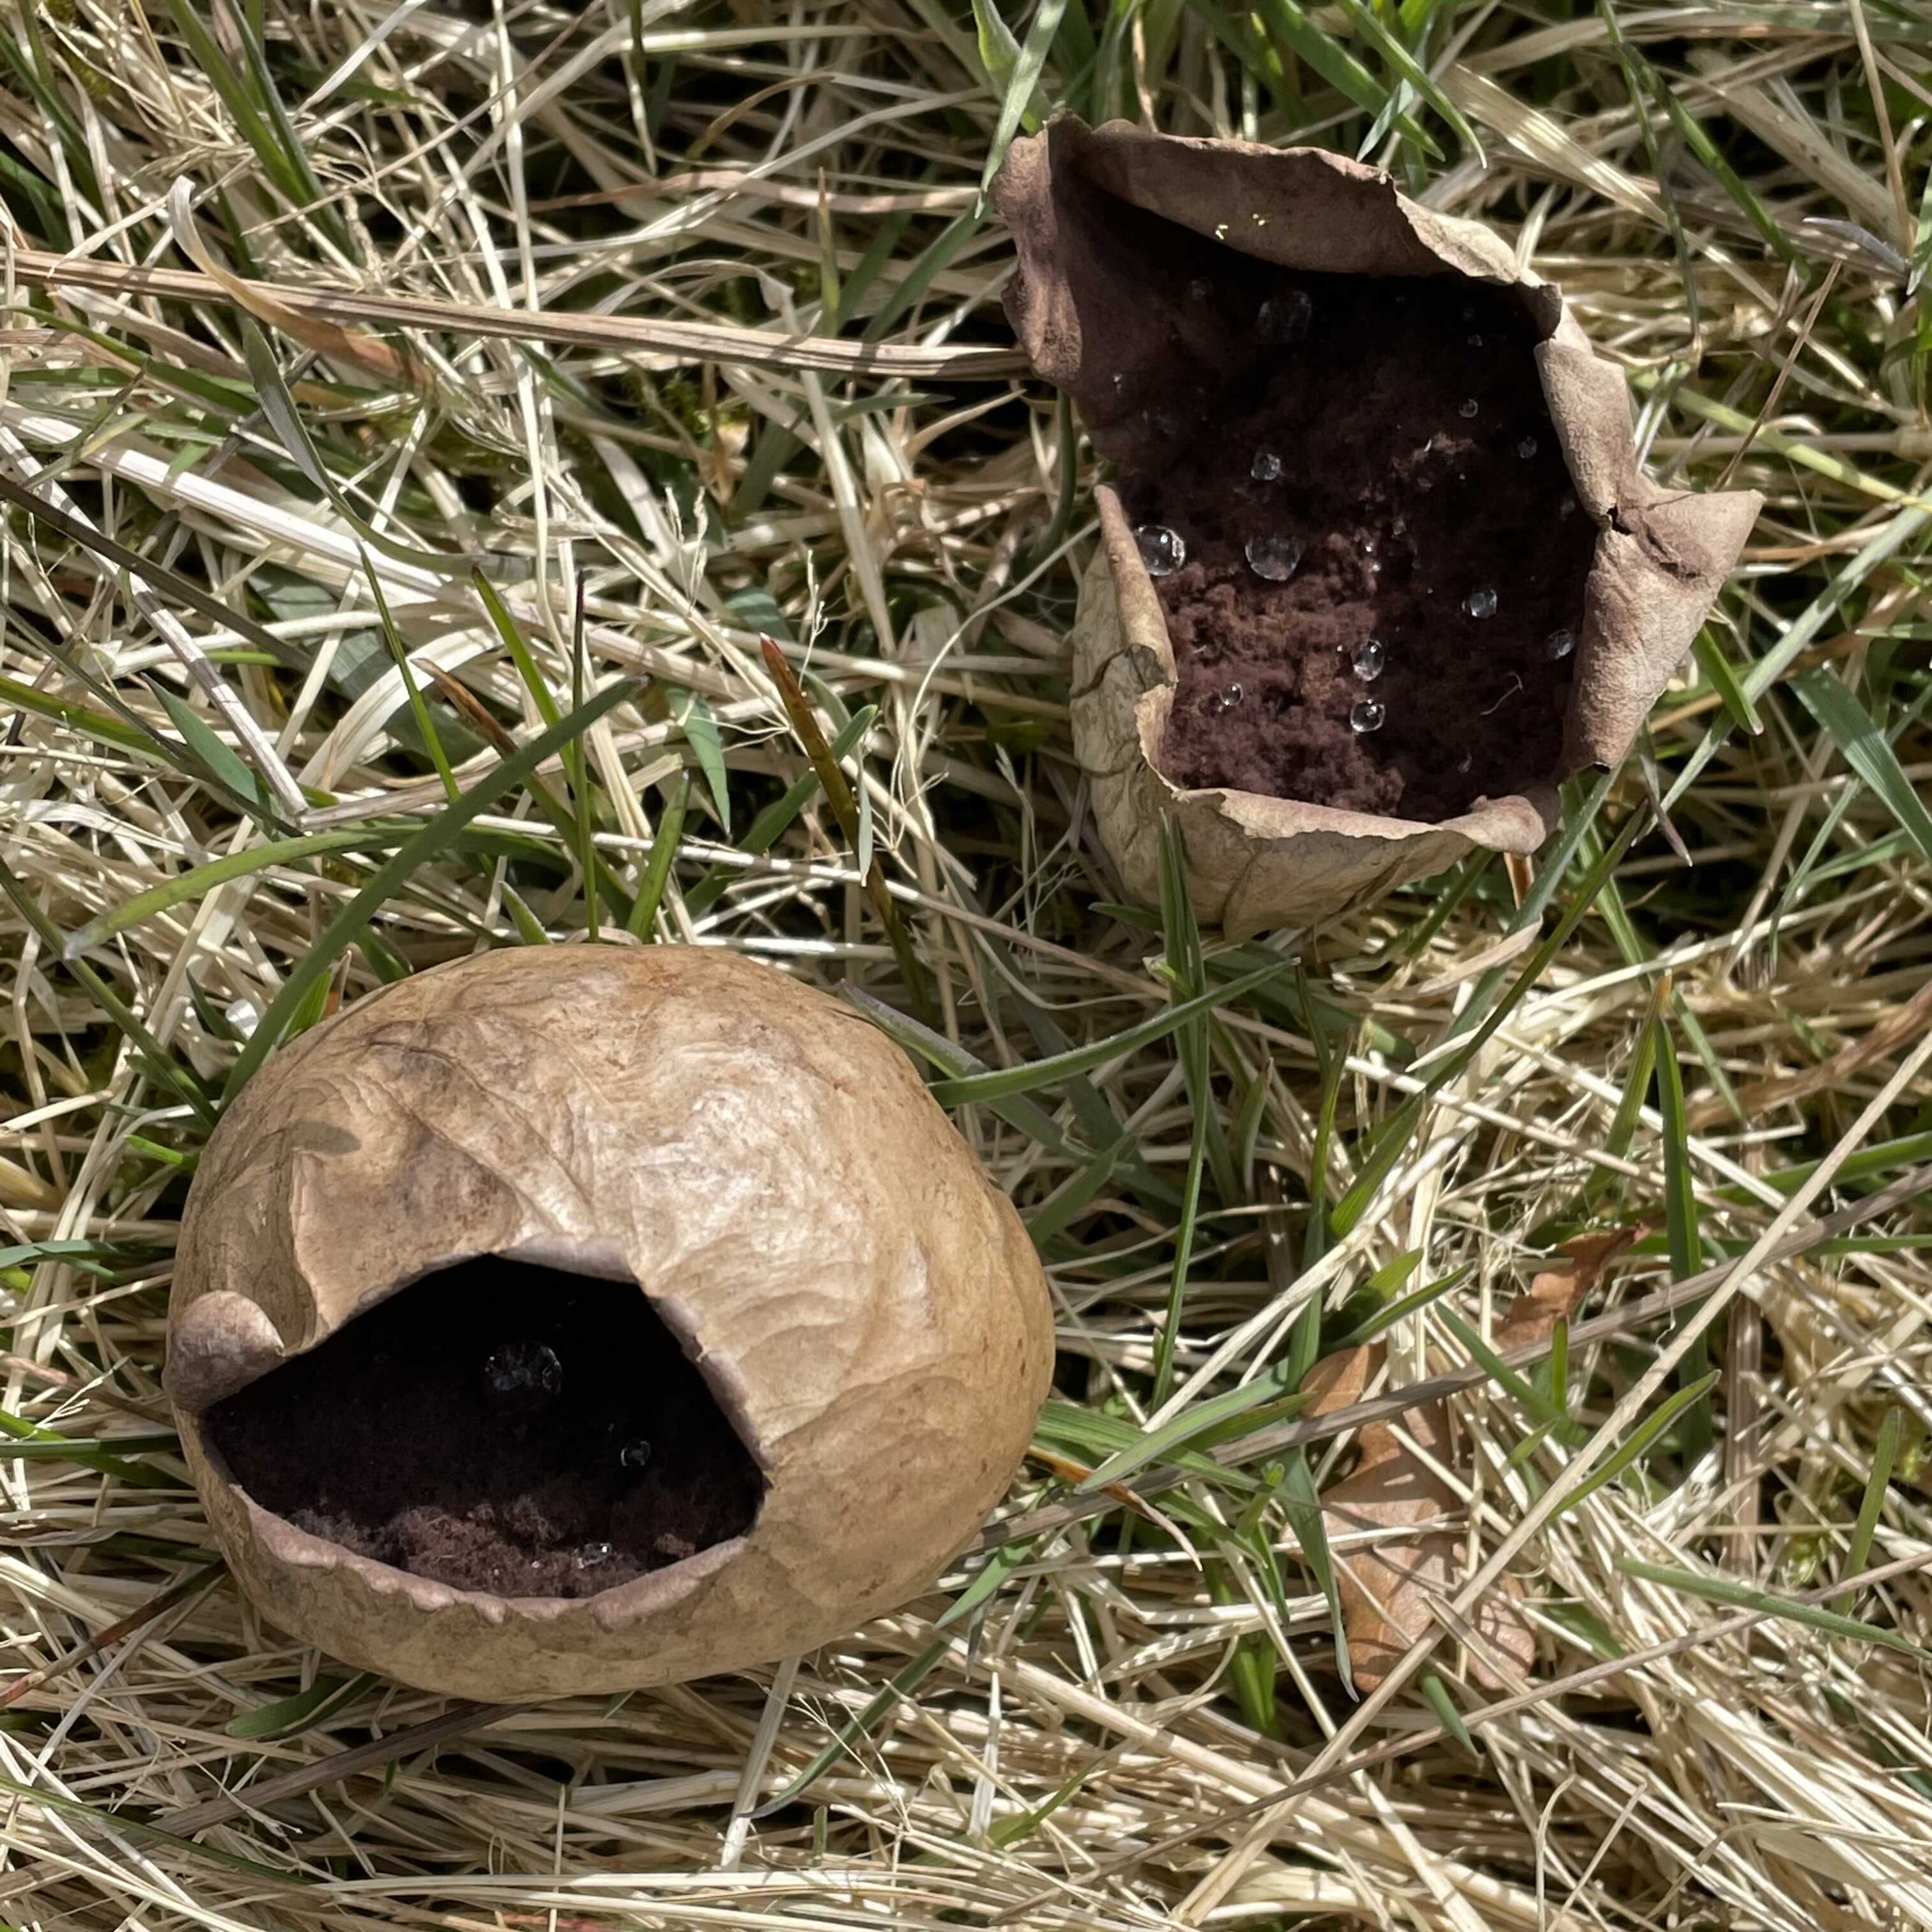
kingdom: Fungi
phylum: Basidiomycota
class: Agaricomycetes
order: Agaricales
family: Lycoperdaceae
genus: Bovista
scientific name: Bovista nigrescens
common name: sortagtig bovist
